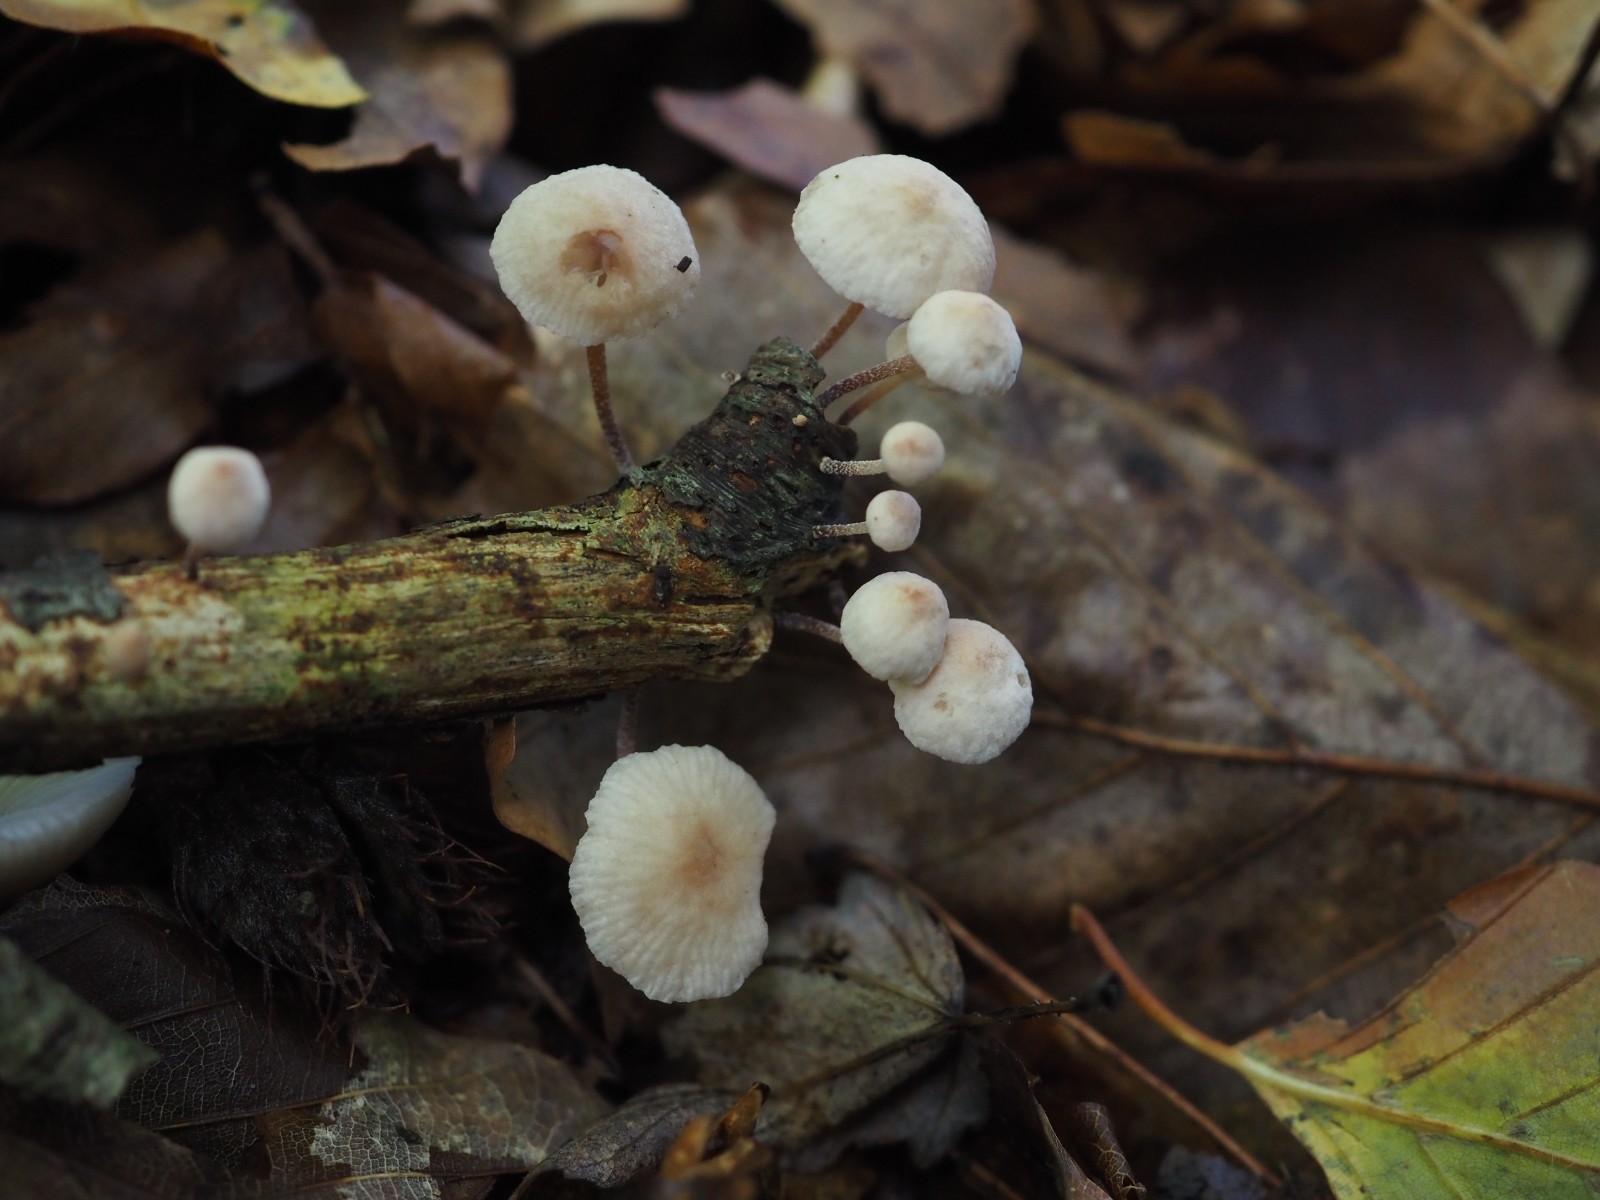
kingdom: Fungi
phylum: Basidiomycota
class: Agaricomycetes
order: Agaricales
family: Omphalotaceae
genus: Collybiopsis
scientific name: Collybiopsis ramealis
